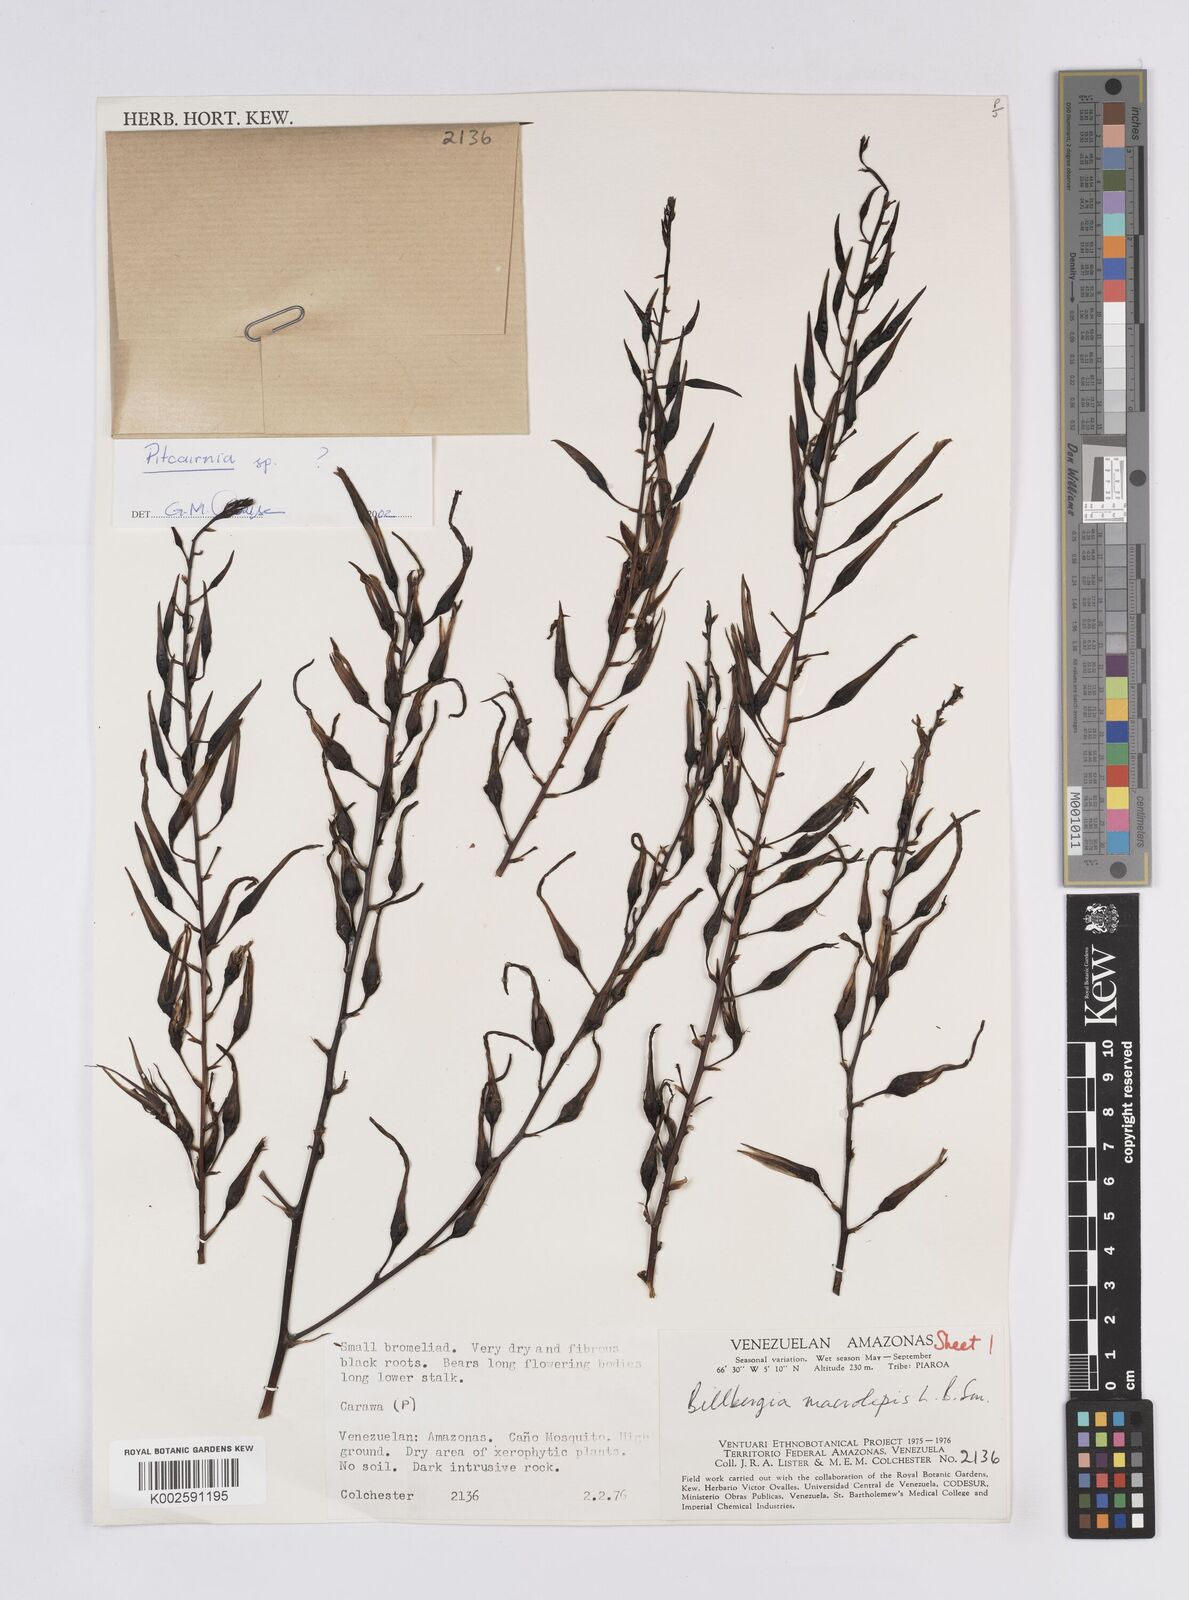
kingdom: Plantae
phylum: Tracheophyta
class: Liliopsida
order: Poales
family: Bromeliaceae
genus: Billbergia
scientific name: Billbergia macrolepis
